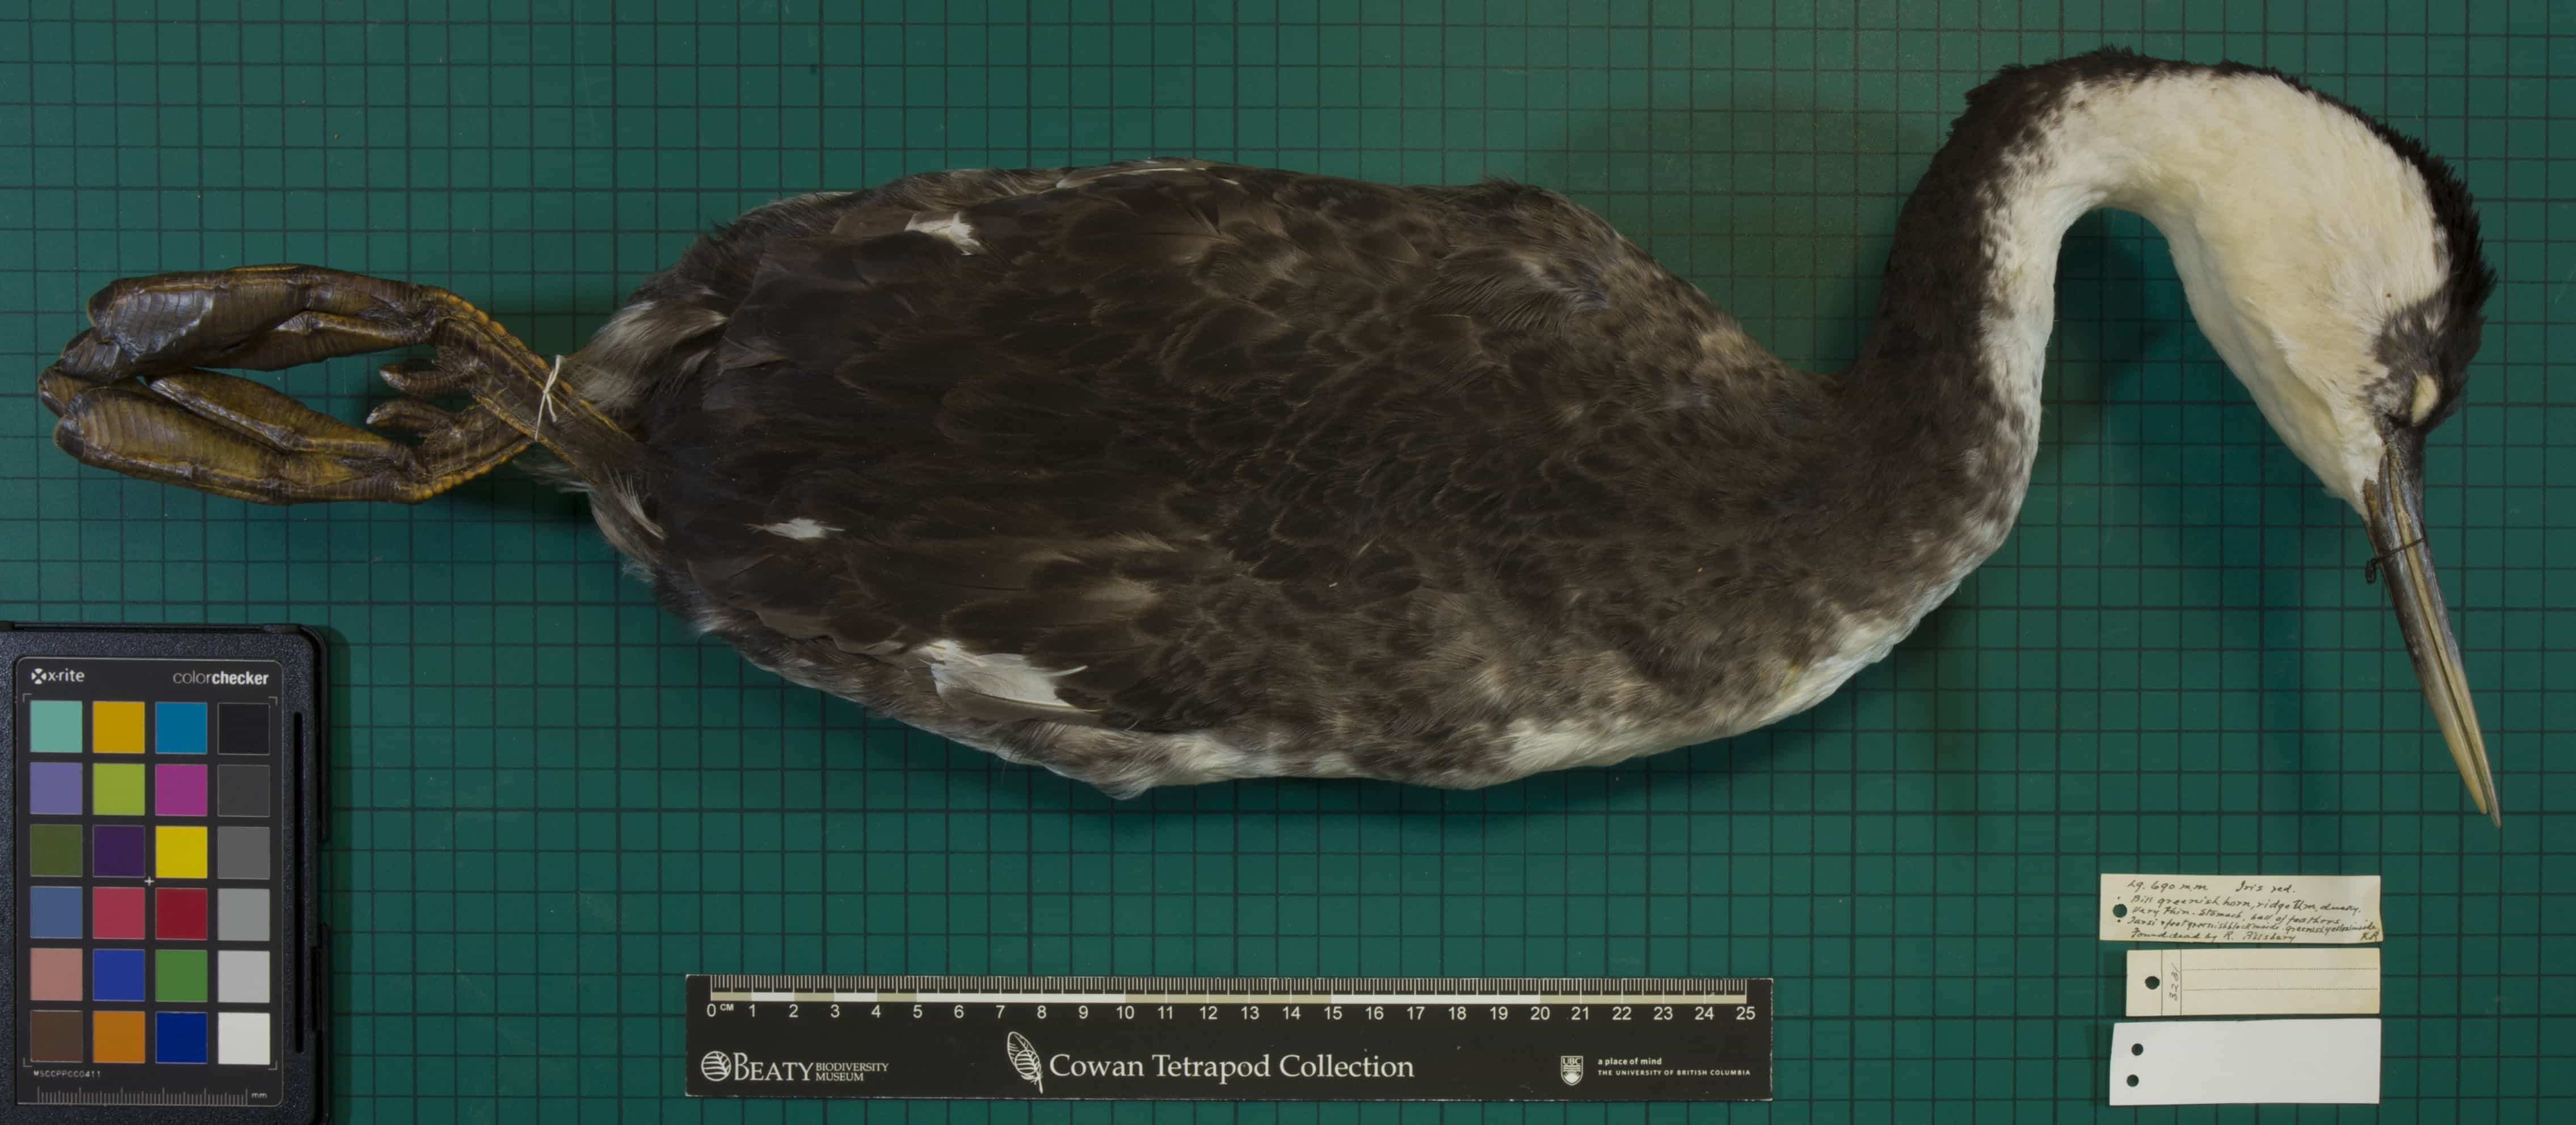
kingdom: Animalia
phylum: Chordata
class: Aves
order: Podicipediformes
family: Podicipedidae
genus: Aechmophorus
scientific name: Aechmophorus occidentalis
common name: Western Grebe
